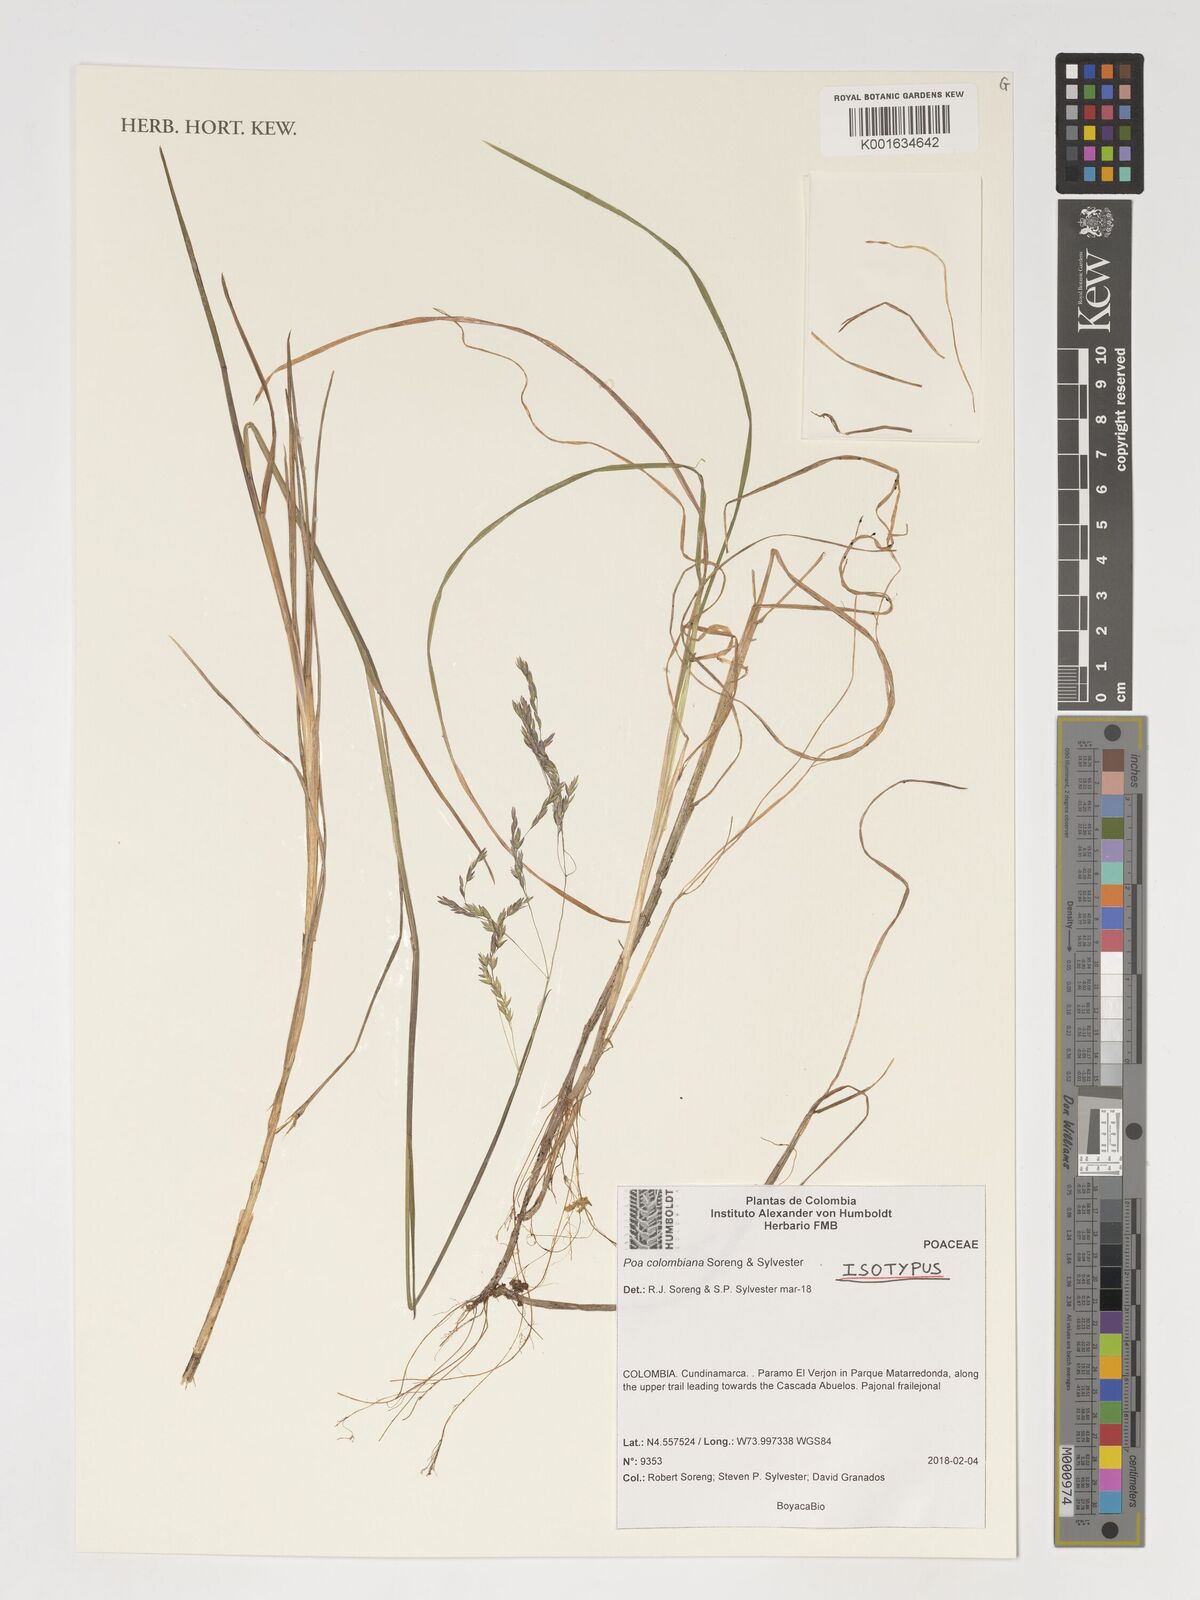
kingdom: Plantae
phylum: Tracheophyta
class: Liliopsida
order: Poales
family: Poaceae
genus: Poa
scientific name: Poa
